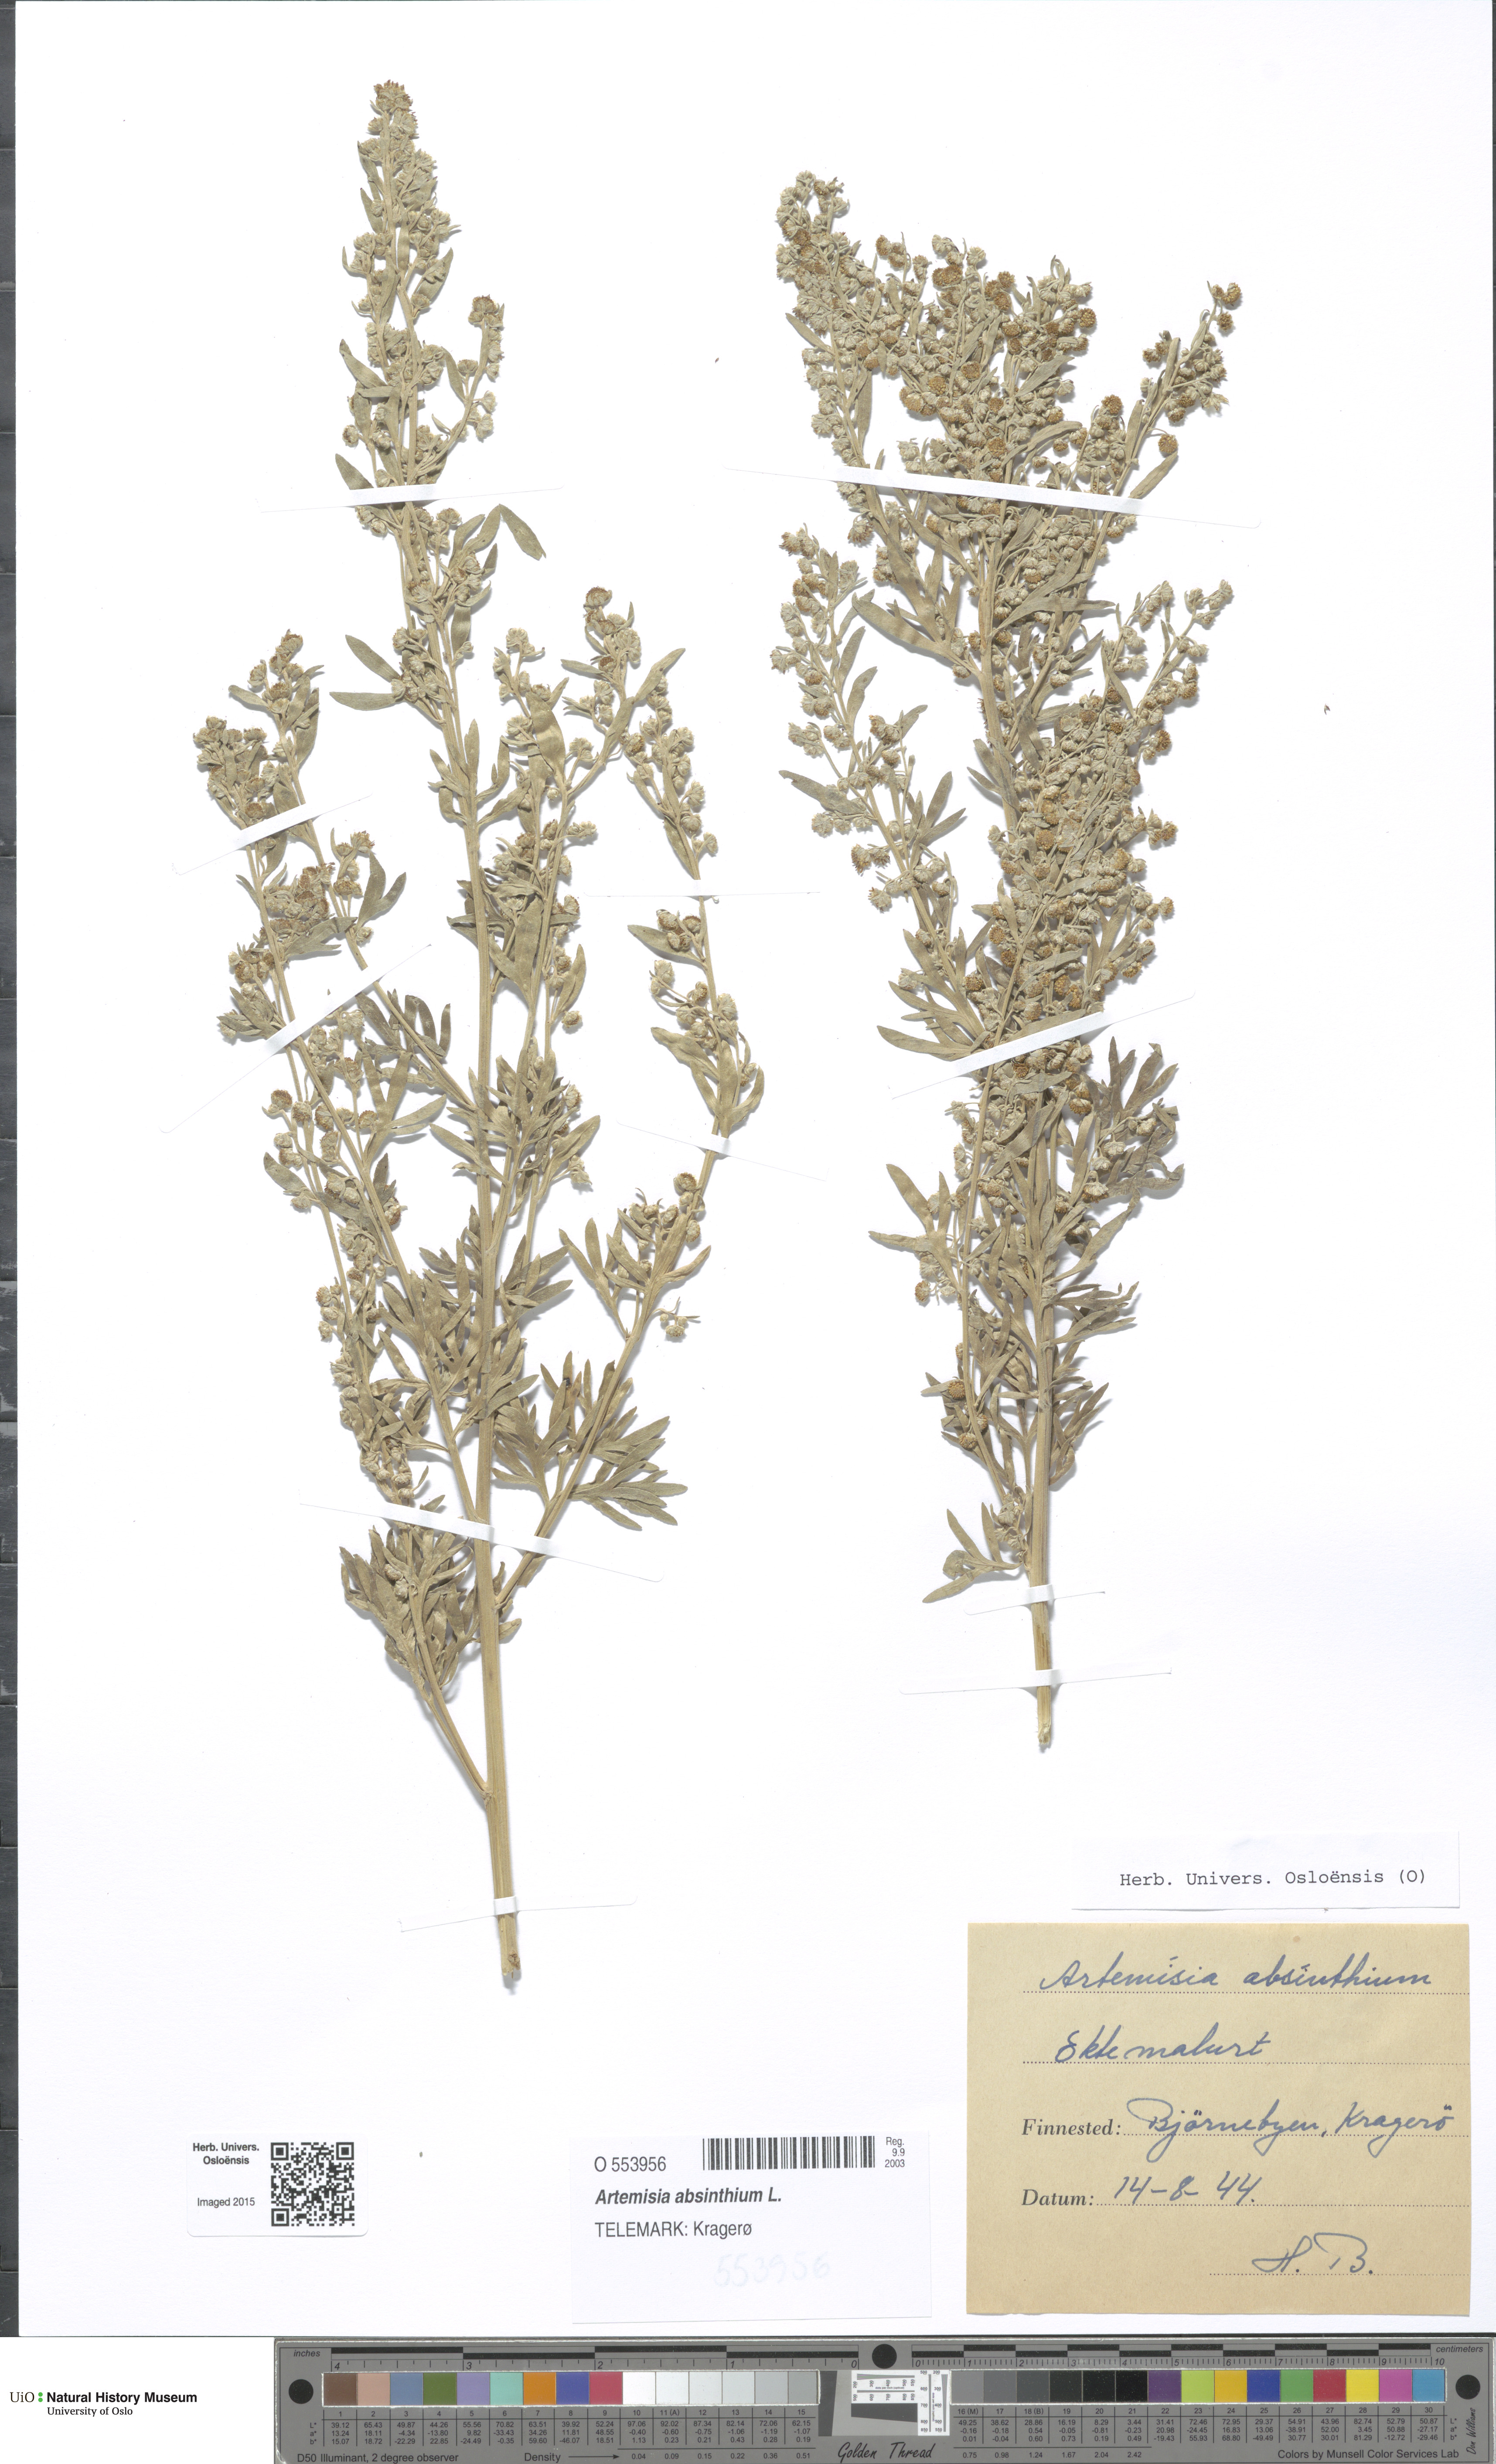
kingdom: Plantae
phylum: Tracheophyta
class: Magnoliopsida
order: Asterales
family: Asteraceae
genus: Artemisia
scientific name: Artemisia absinthium
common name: Wormwood
